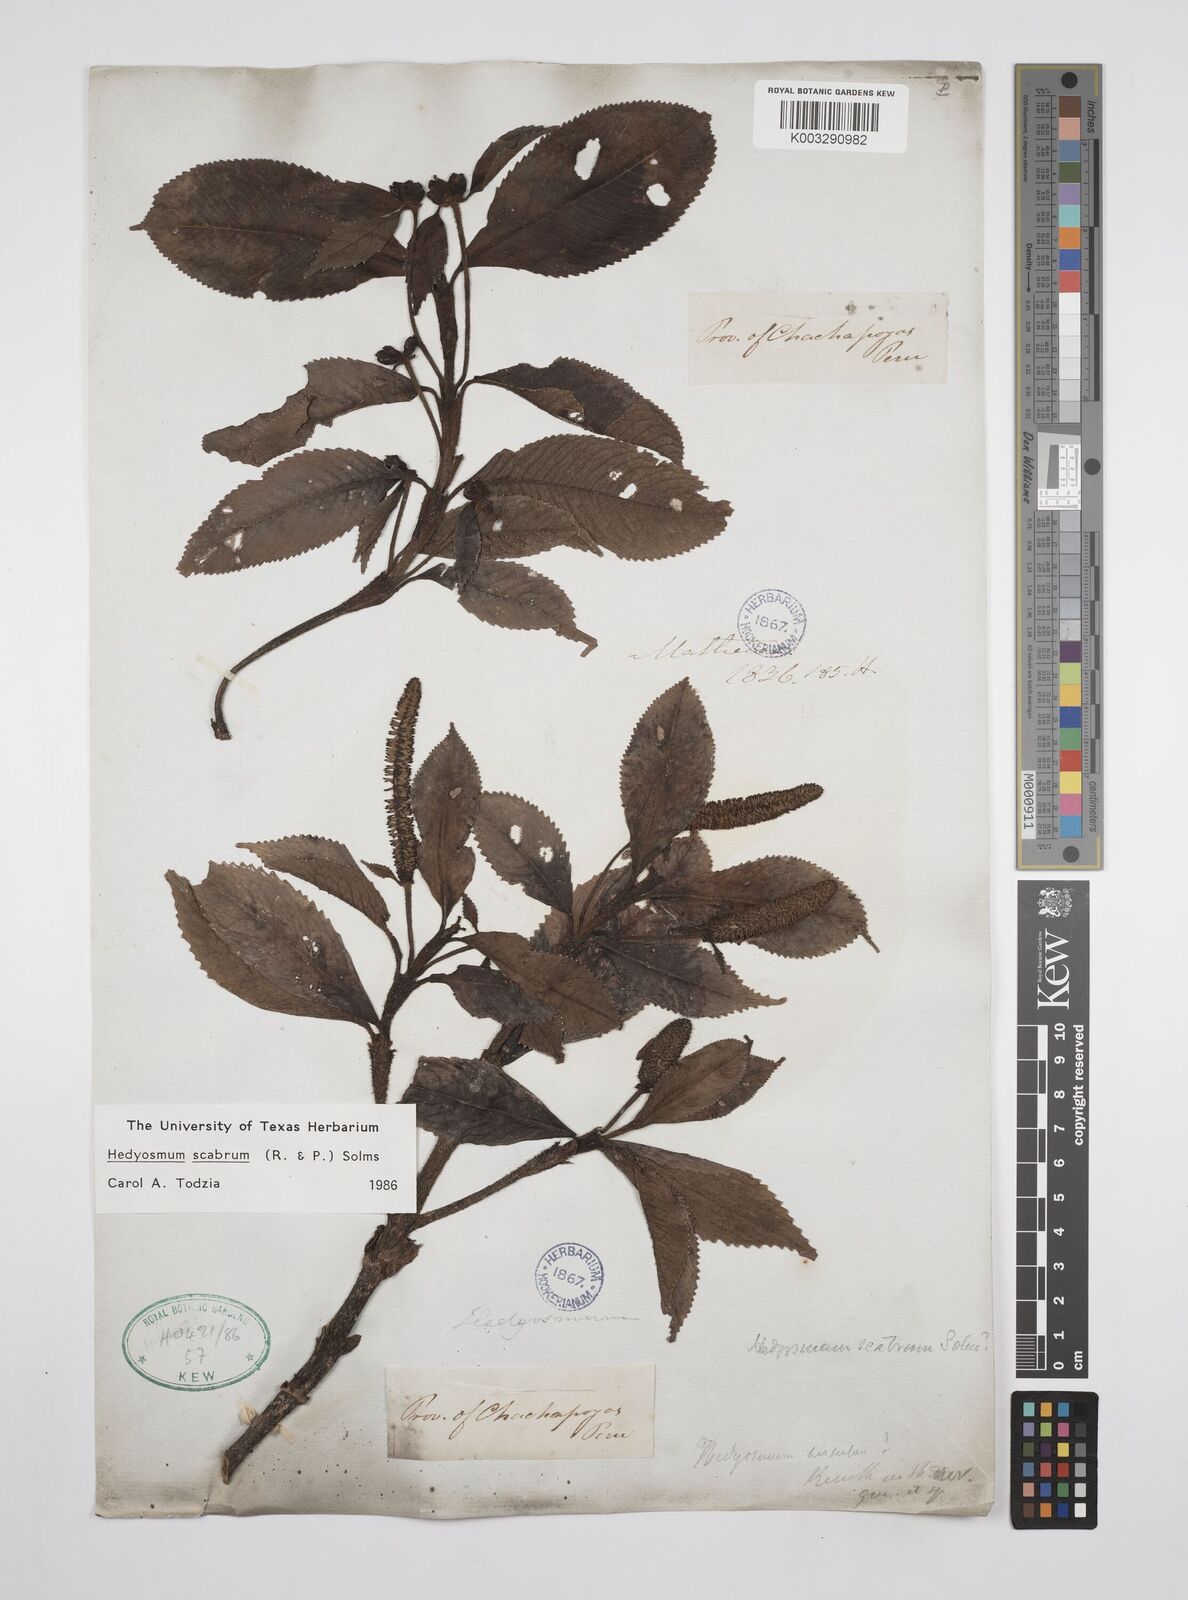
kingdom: Plantae
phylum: Tracheophyta
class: Magnoliopsida
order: Chloranthales
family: Chloranthaceae
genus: Hedyosmum
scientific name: Hedyosmum scabrum
